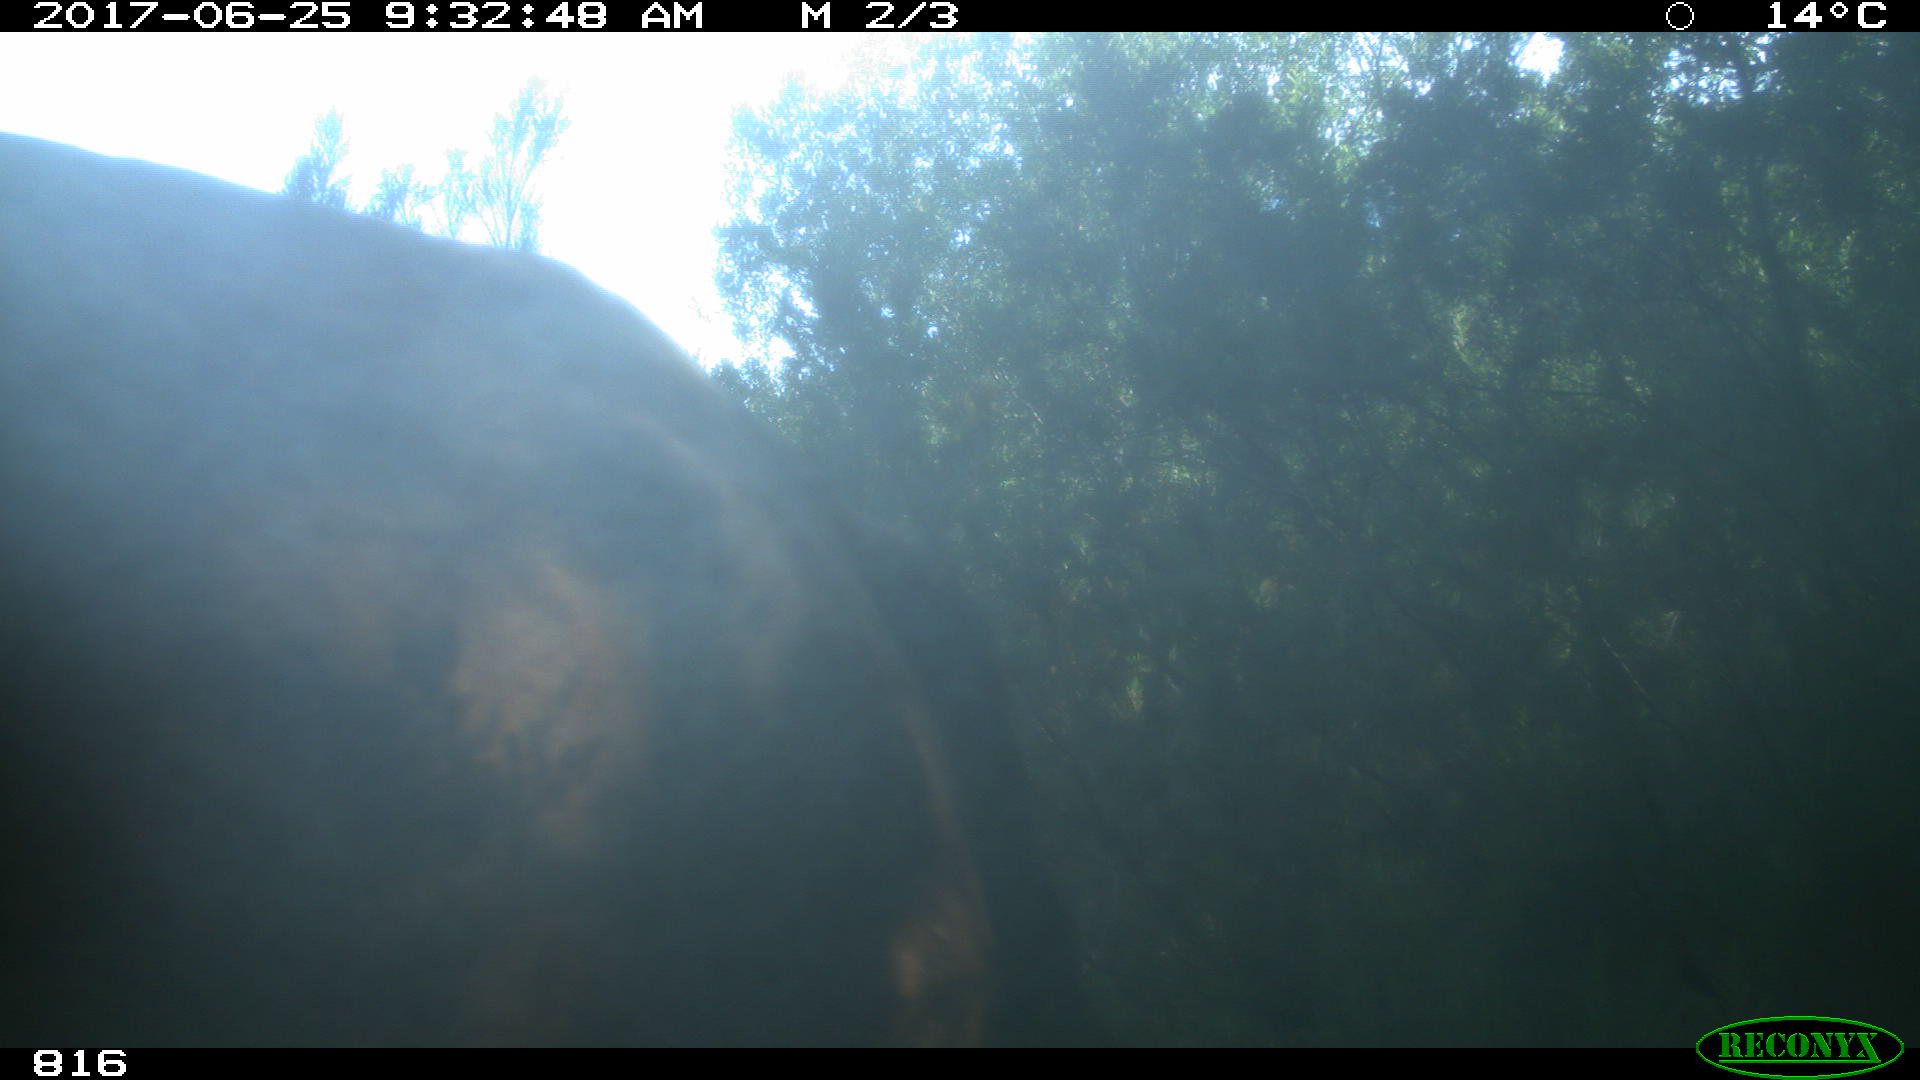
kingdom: Animalia
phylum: Chordata
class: Mammalia
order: Perissodactyla
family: Equidae
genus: Equus
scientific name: Equus caballus
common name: Horse
